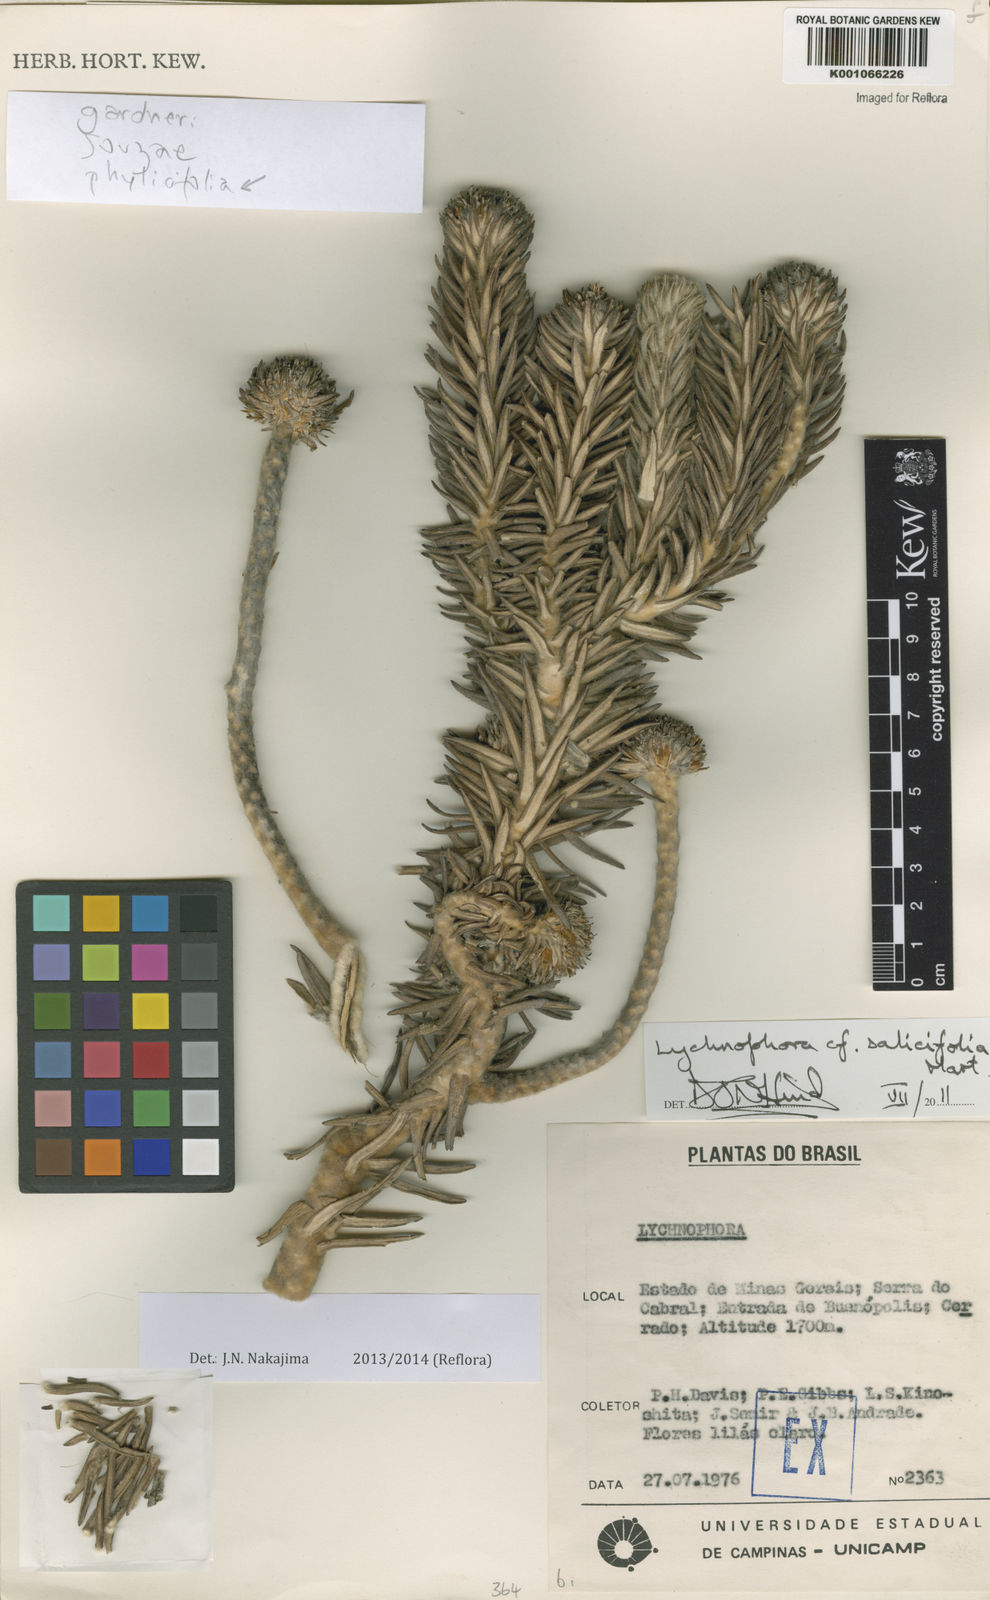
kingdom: Plantae
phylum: Tracheophyta
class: Magnoliopsida
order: Asterales
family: Asteraceae
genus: Lychnophora
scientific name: Lychnophora salicifolia
